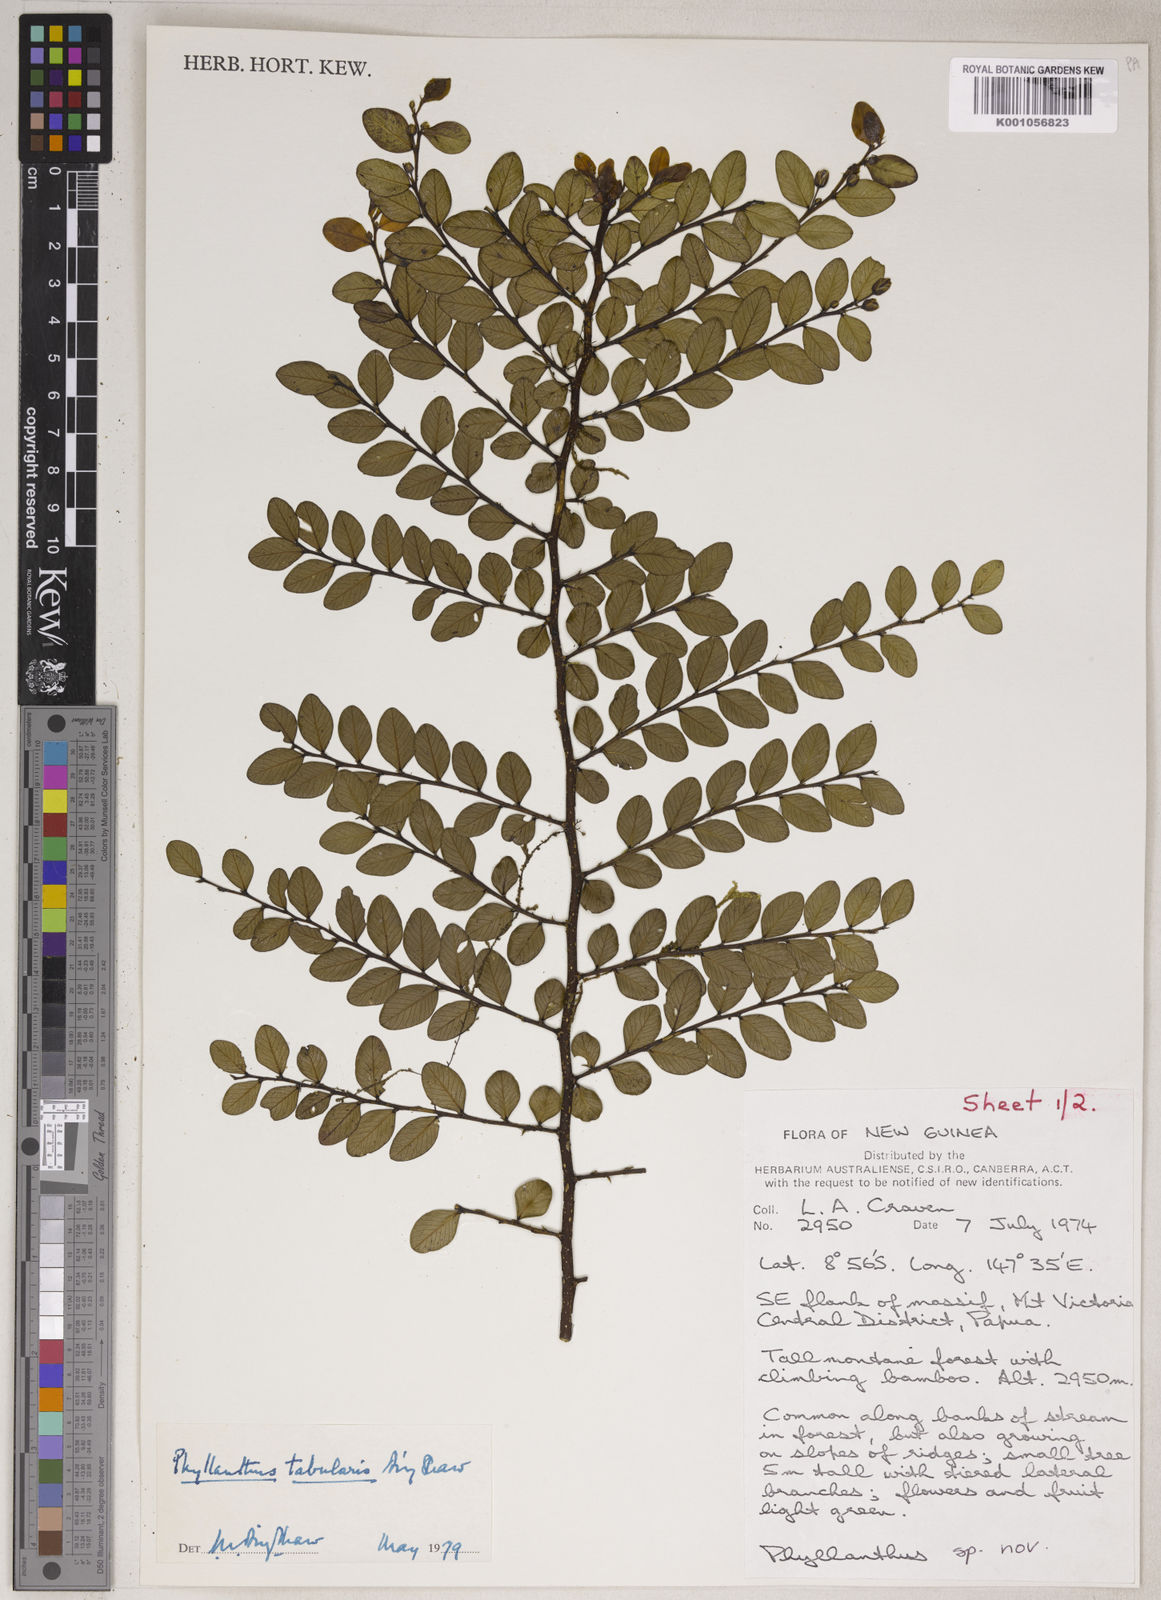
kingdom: Plantae
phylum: Tracheophyta
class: Magnoliopsida
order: Malpighiales
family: Phyllanthaceae
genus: Phyllanthus
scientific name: Phyllanthus tabularis
